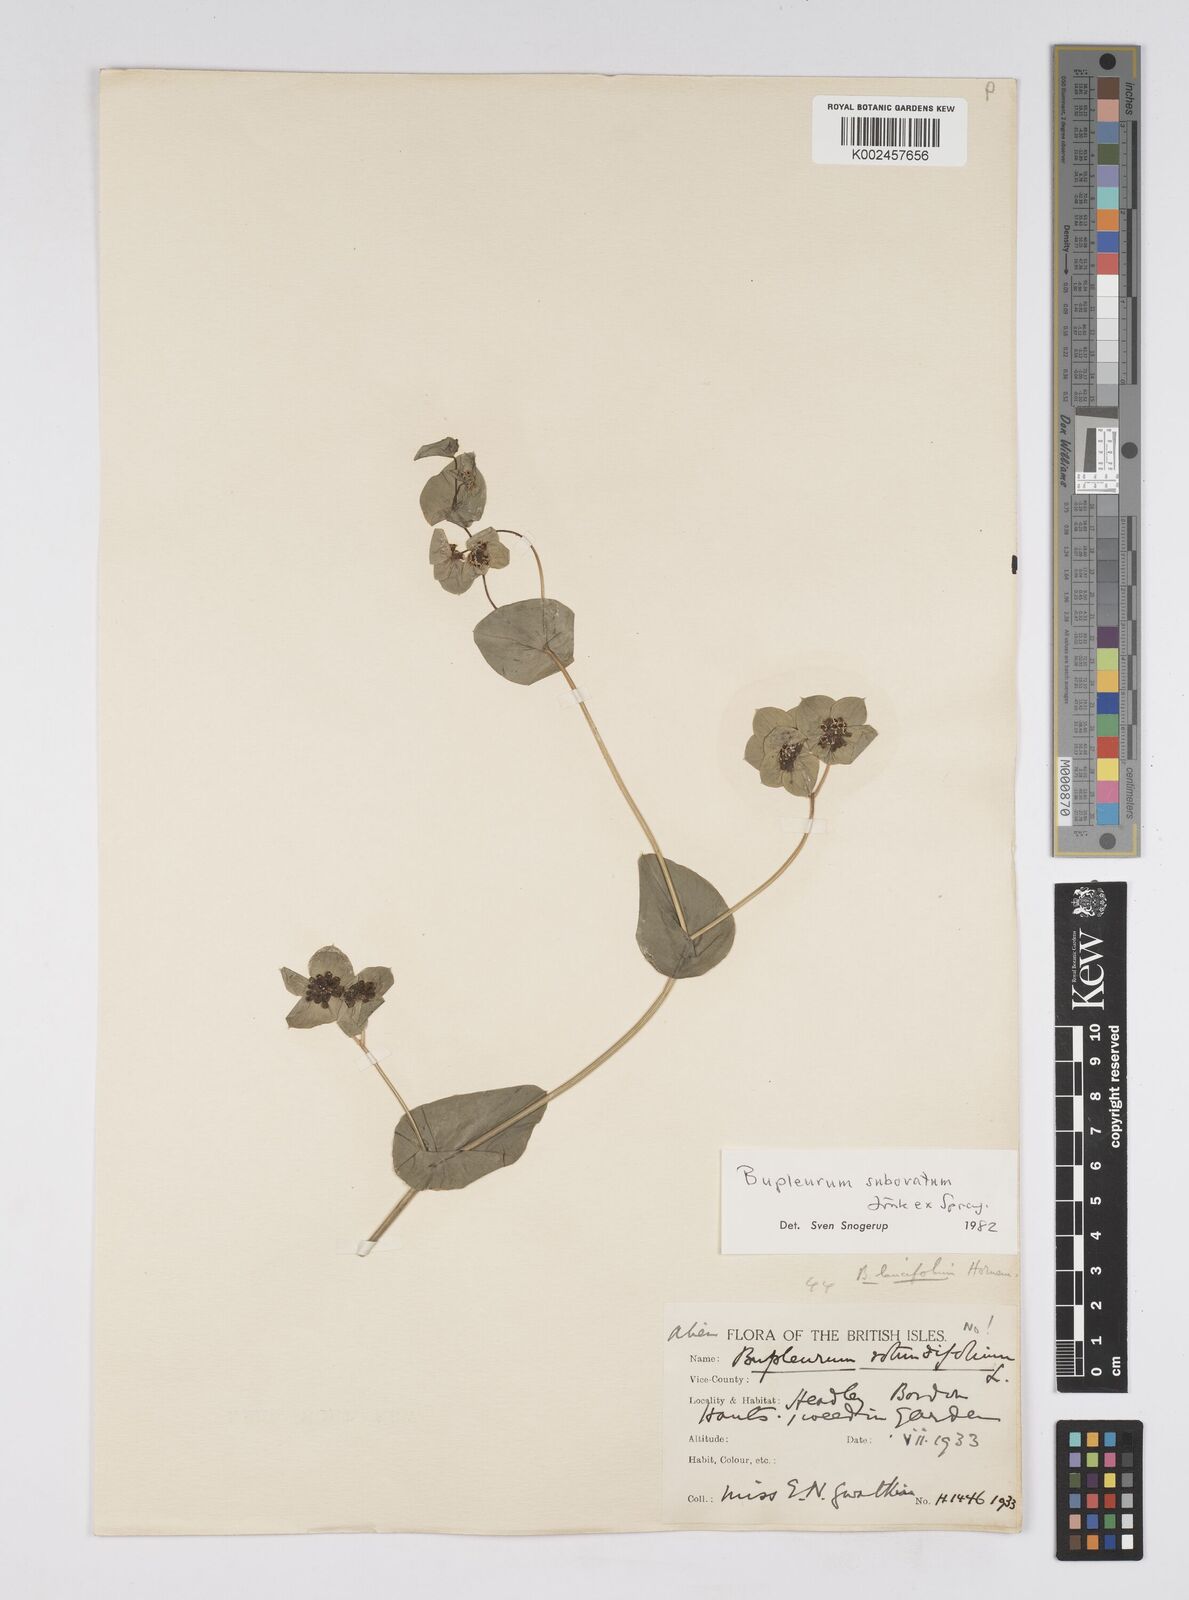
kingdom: Plantae
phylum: Tracheophyta
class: Magnoliopsida
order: Apiales
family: Apiaceae
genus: Bupleurum
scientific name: Bupleurum subovatum
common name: False thorow-wax
